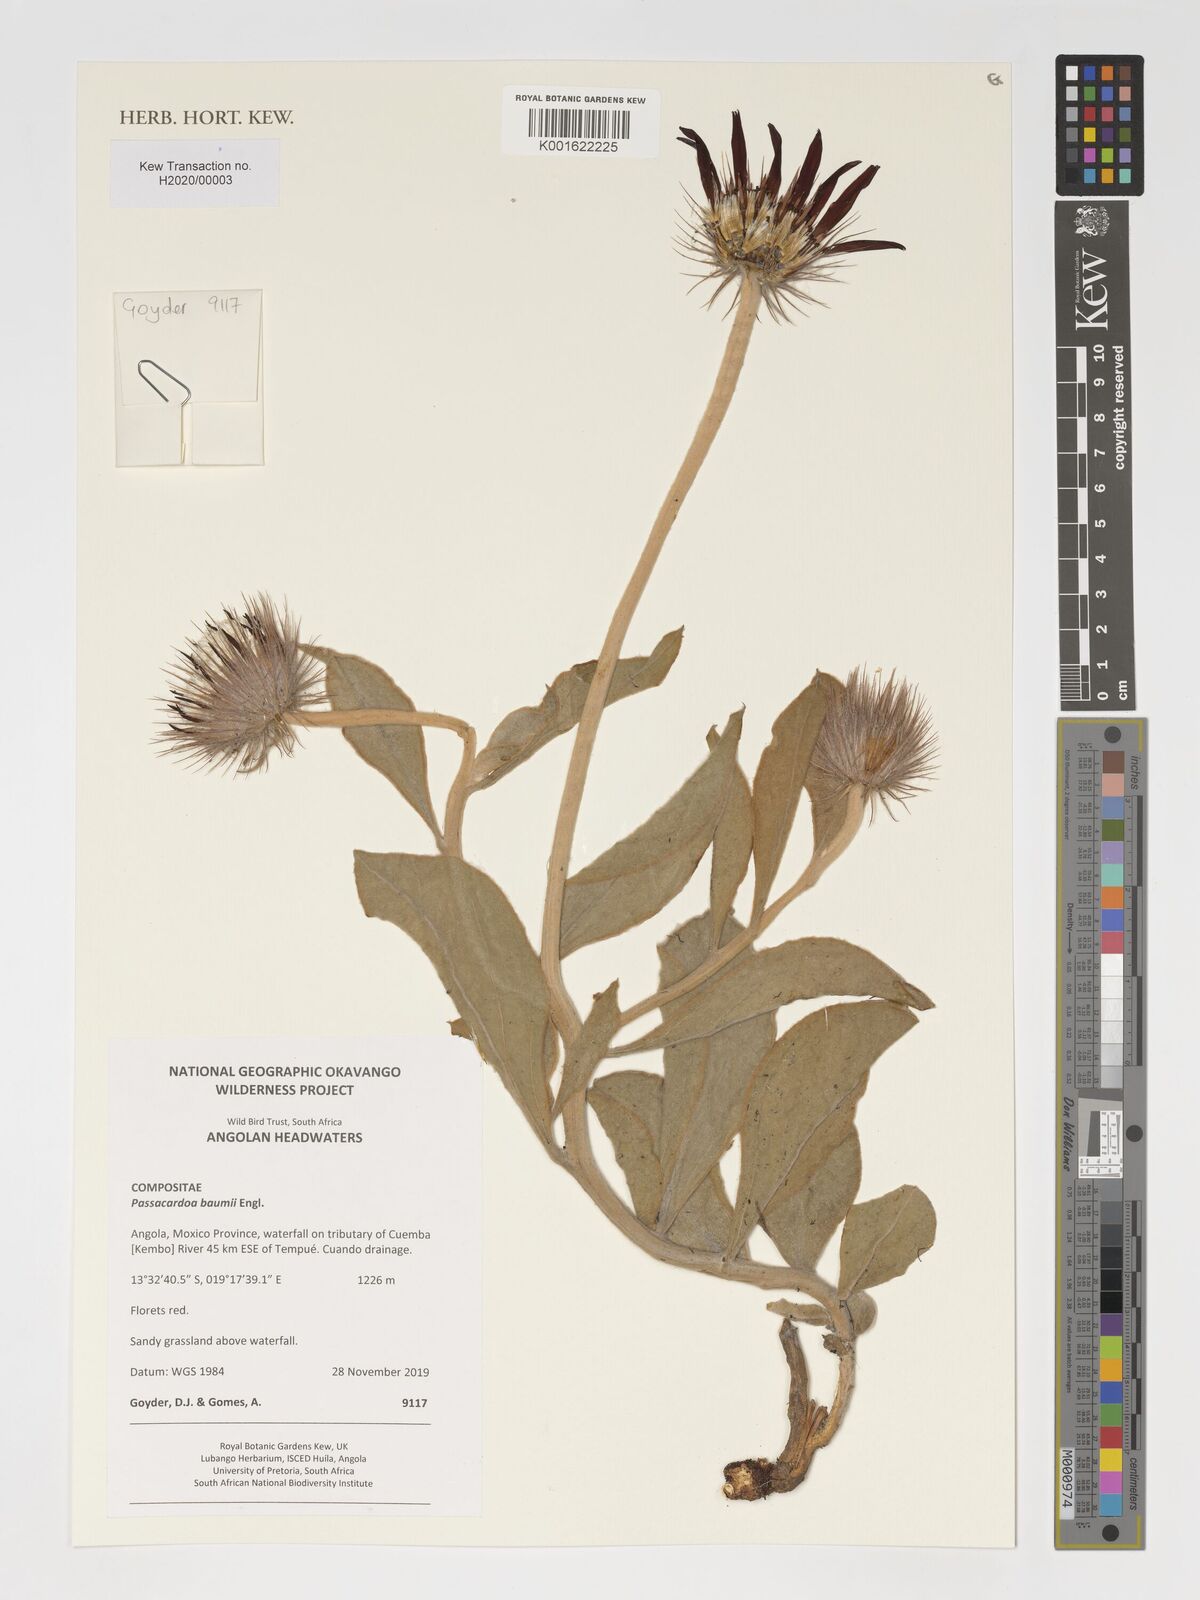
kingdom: Plantae
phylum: Tracheophyta
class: Magnoliopsida
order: Asterales
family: Asteraceae
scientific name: Asteraceae
